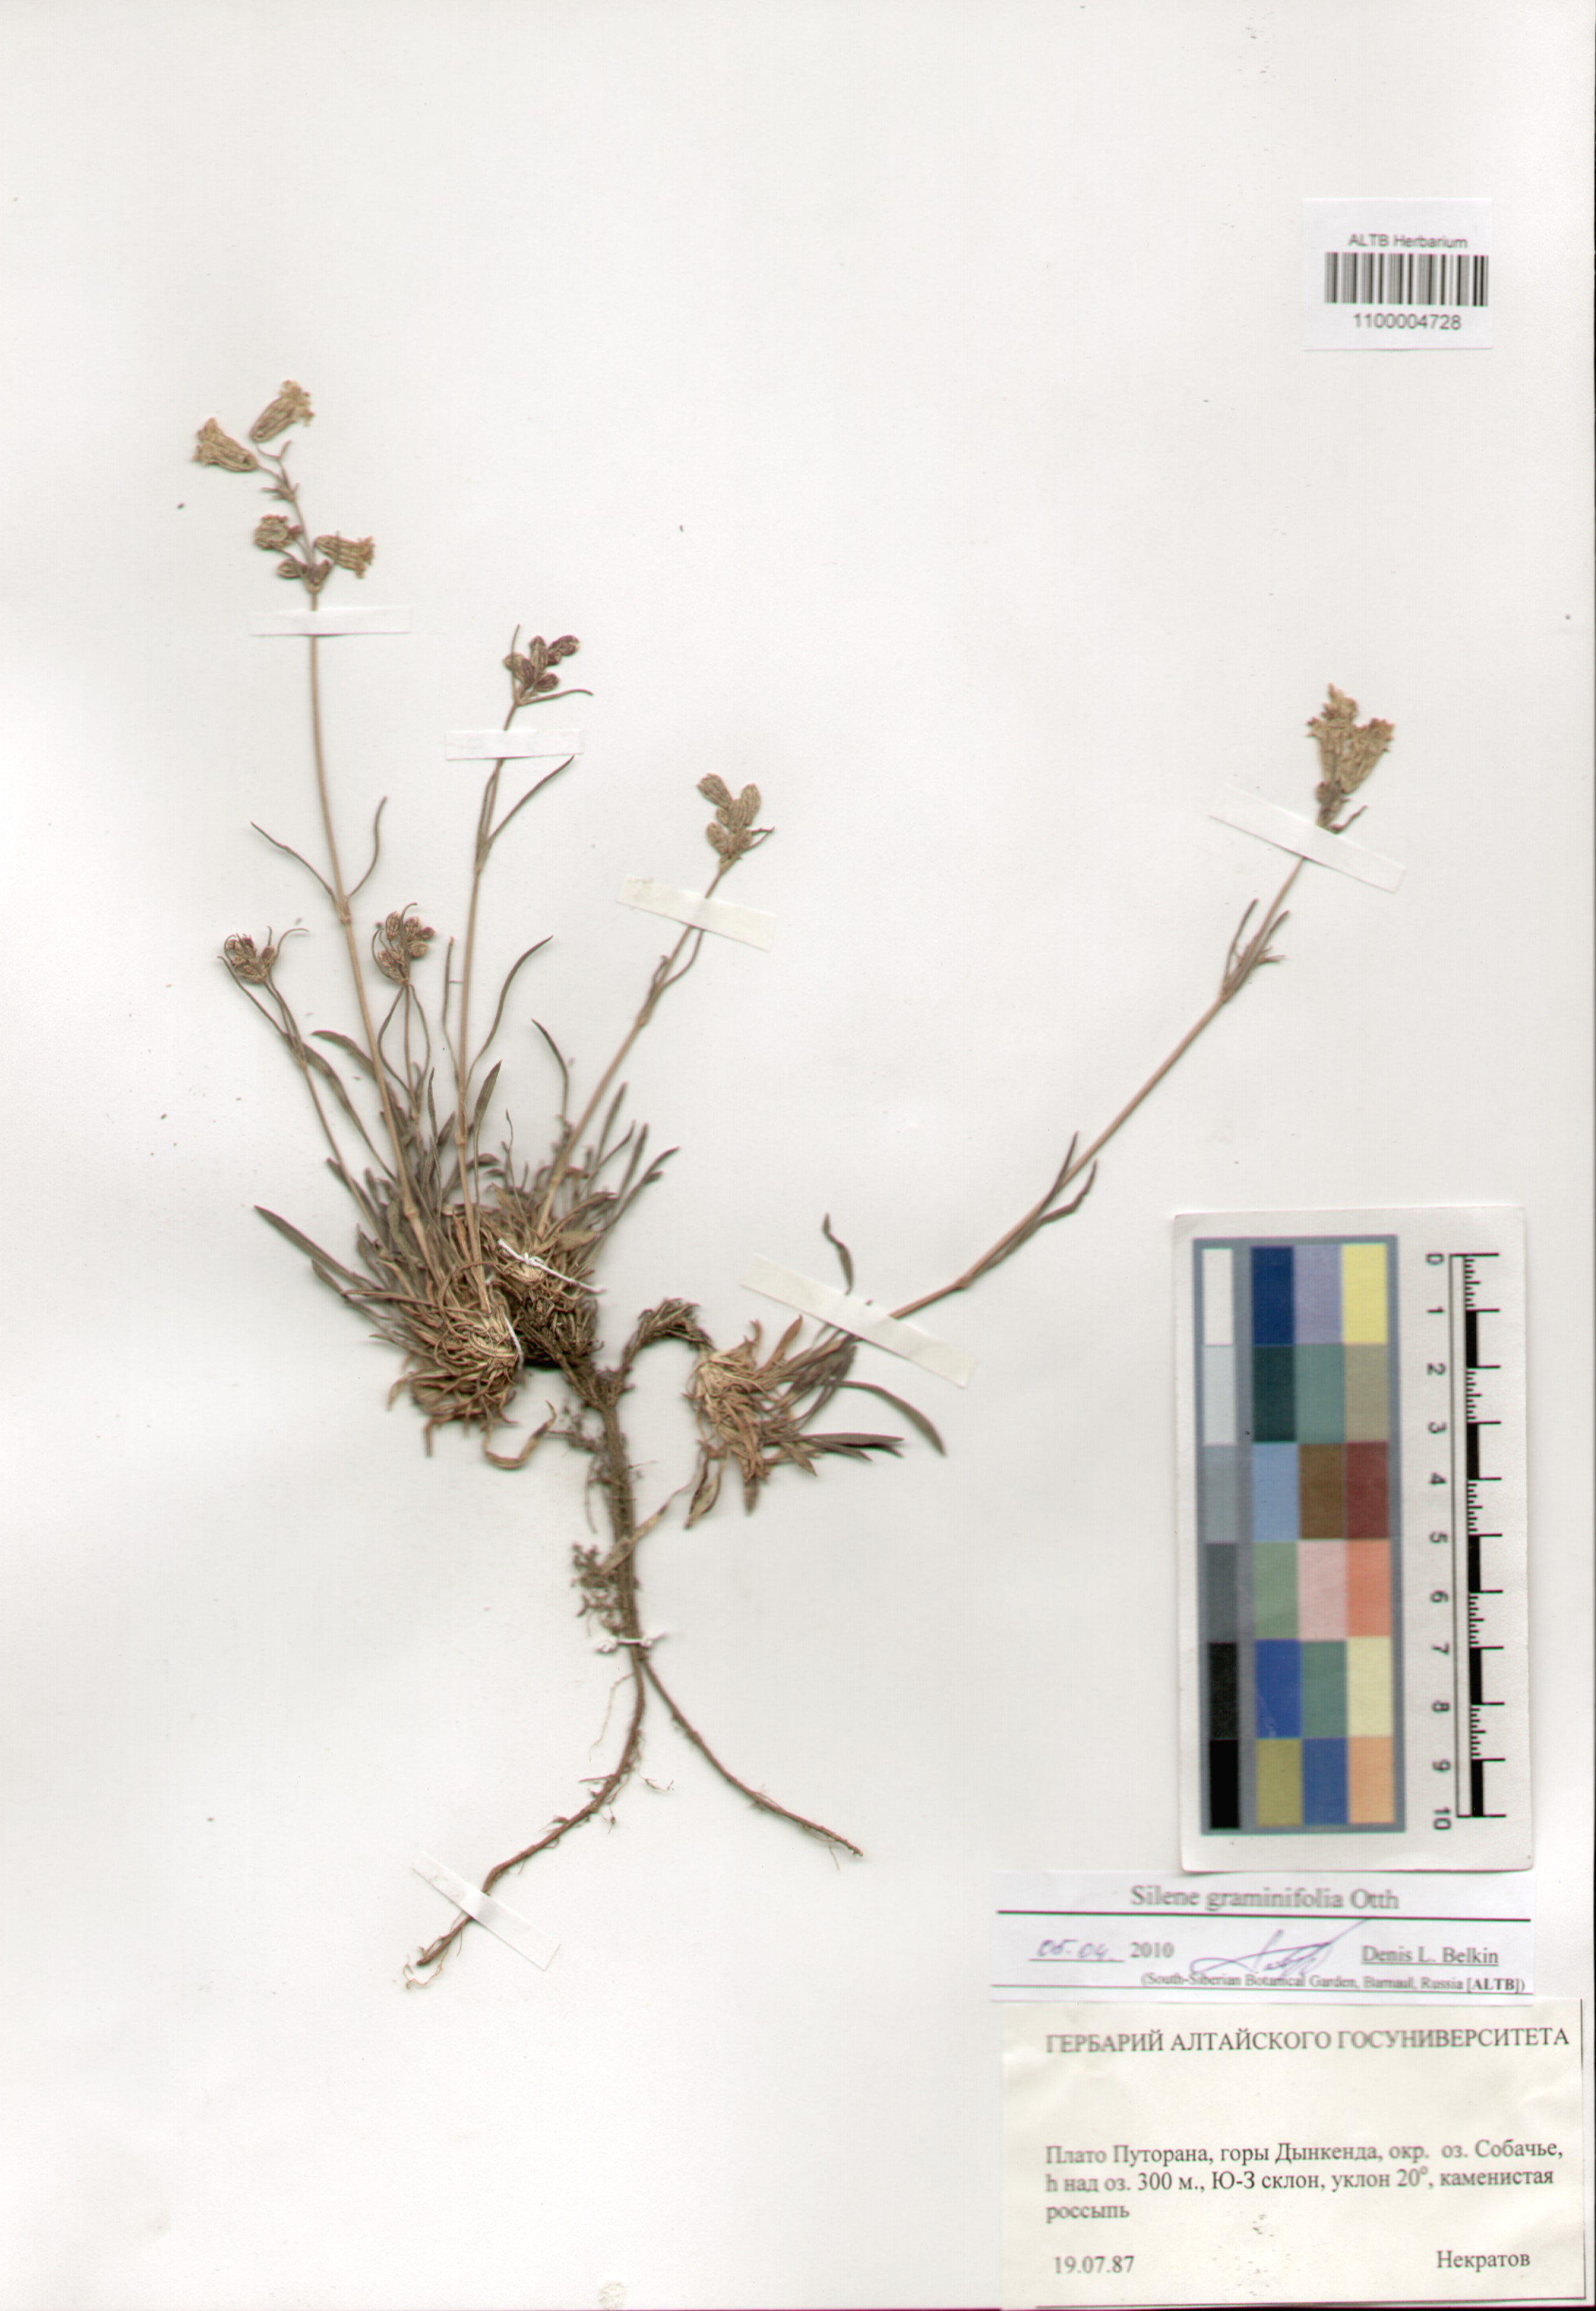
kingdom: Plantae
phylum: Tracheophyta
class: Magnoliopsida
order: Caryophyllales
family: Caryophyllaceae
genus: Silene
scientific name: Silene graminifolia
